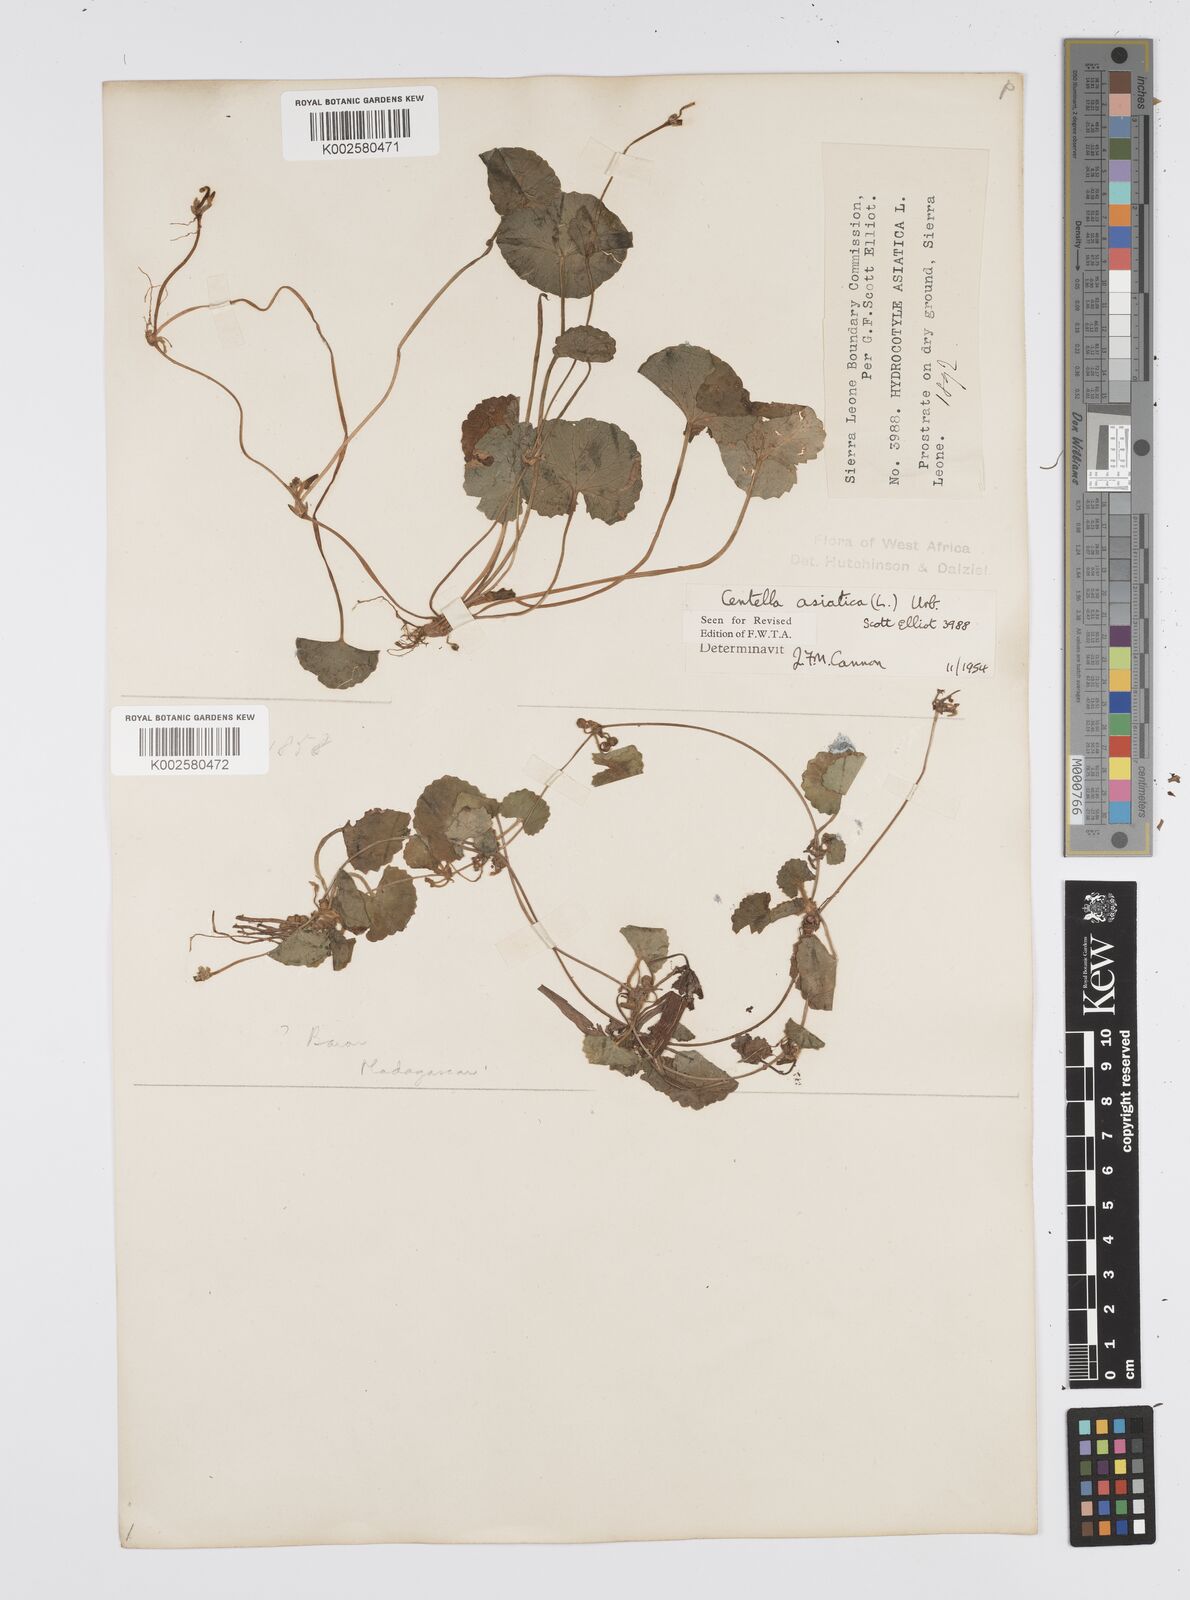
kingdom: Plantae
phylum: Tracheophyta
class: Magnoliopsida
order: Apiales
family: Apiaceae
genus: Centella
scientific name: Centella asiatica
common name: Spadeleaf
